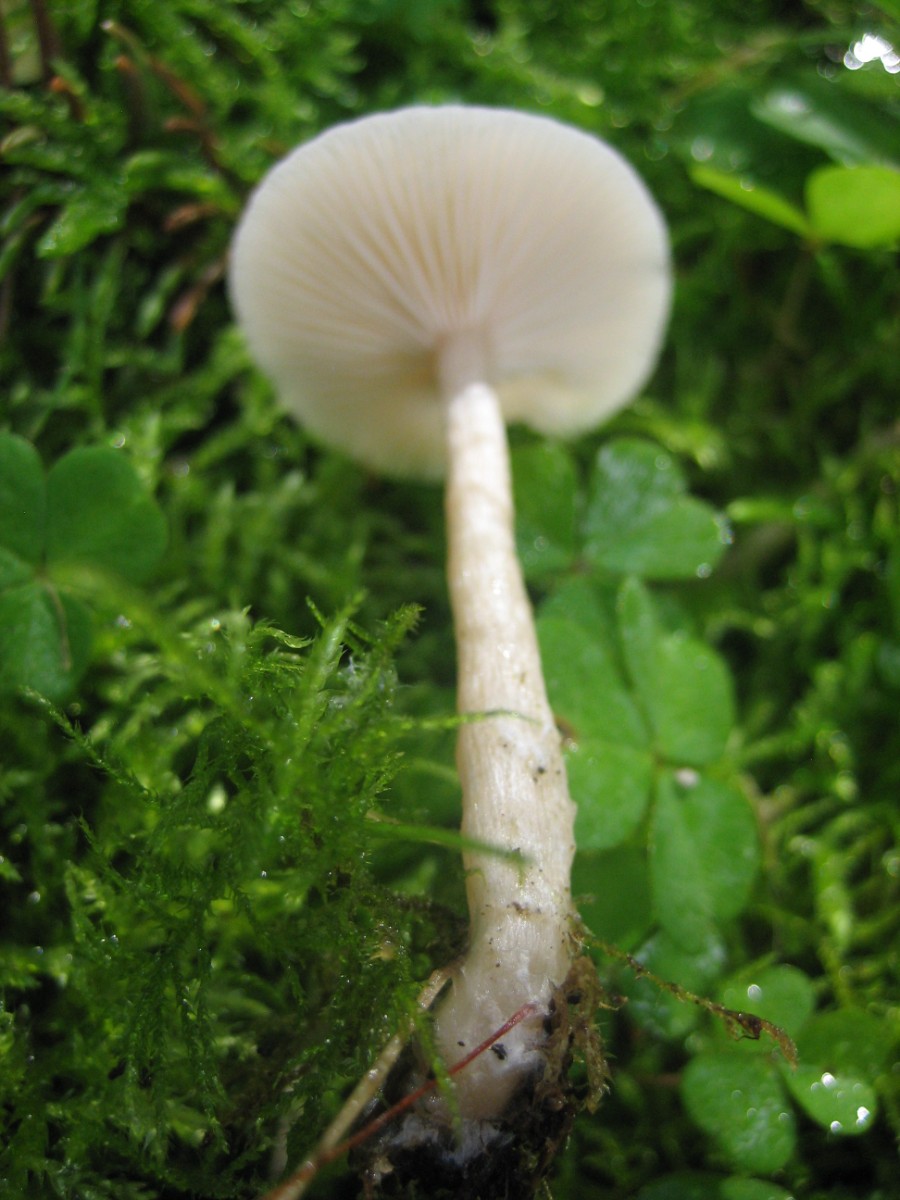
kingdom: Fungi
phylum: Basidiomycota
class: Agaricomycetes
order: Agaricales
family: Tricholomataceae
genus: Clitocybe
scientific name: Clitocybe fragrans
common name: vellugtende tragthat
